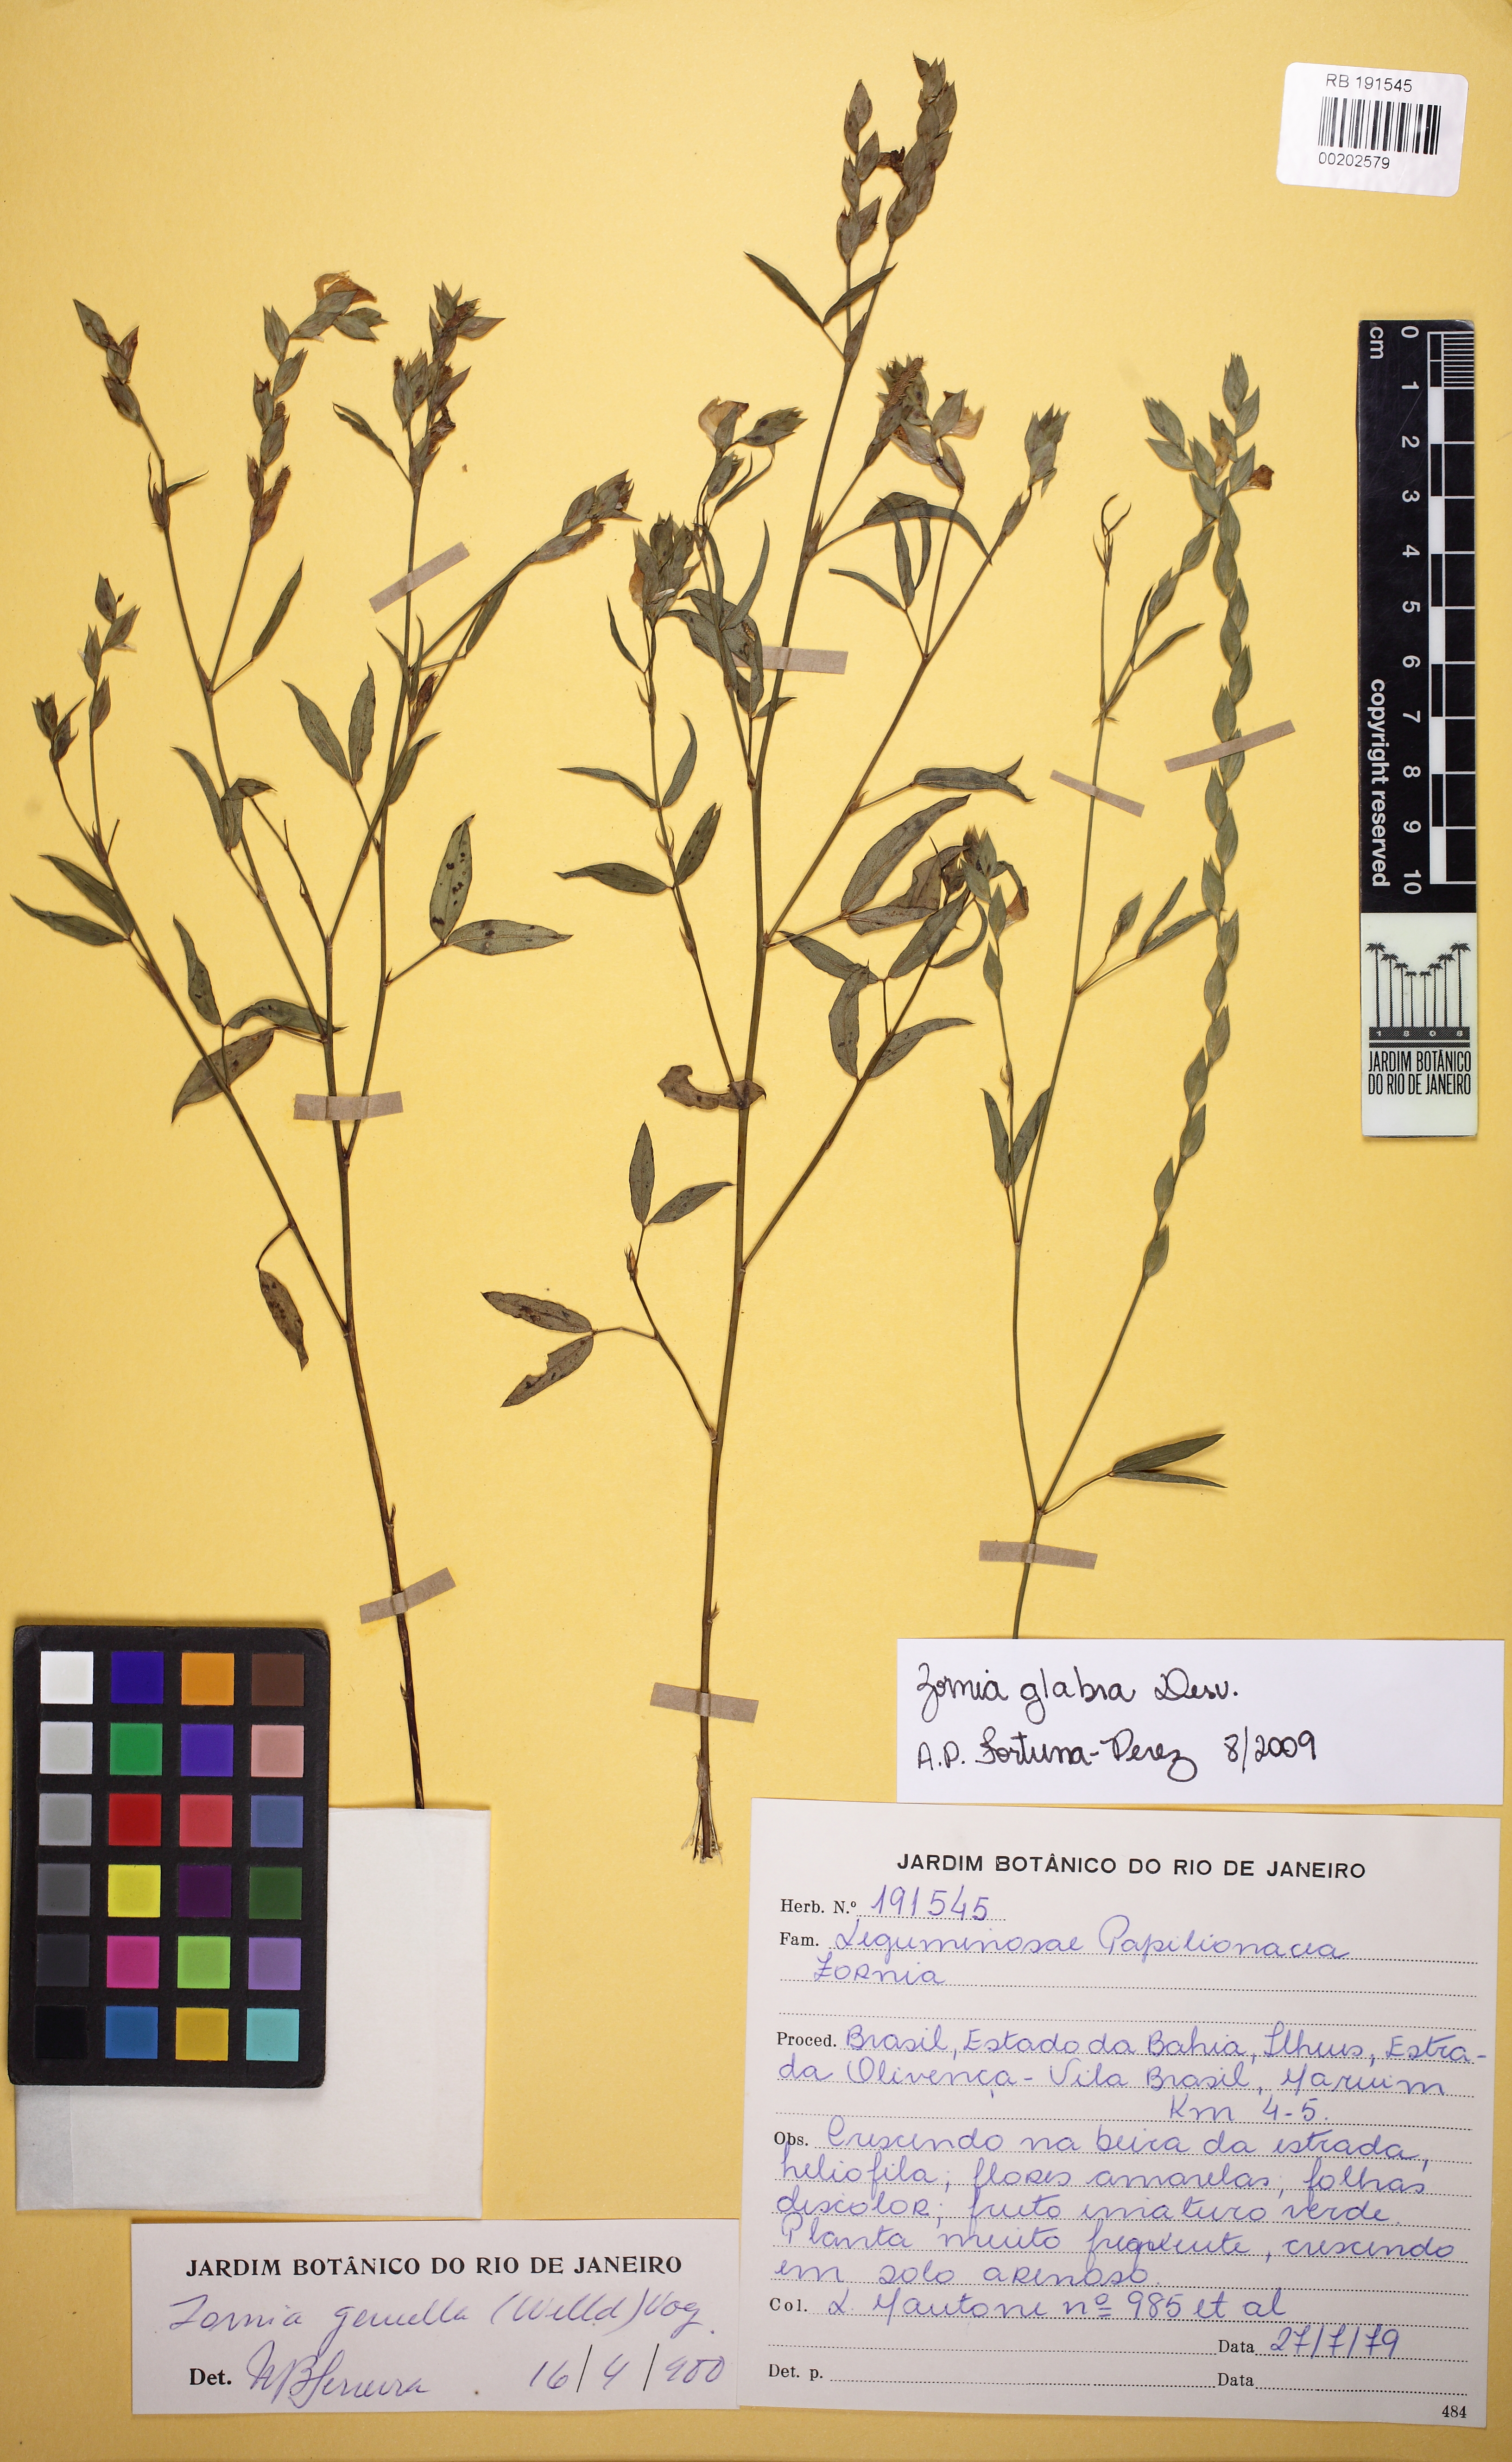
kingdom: Plantae
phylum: Tracheophyta
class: Magnoliopsida
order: Fabales
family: Fabaceae
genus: Zornia
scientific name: Zornia glabra
